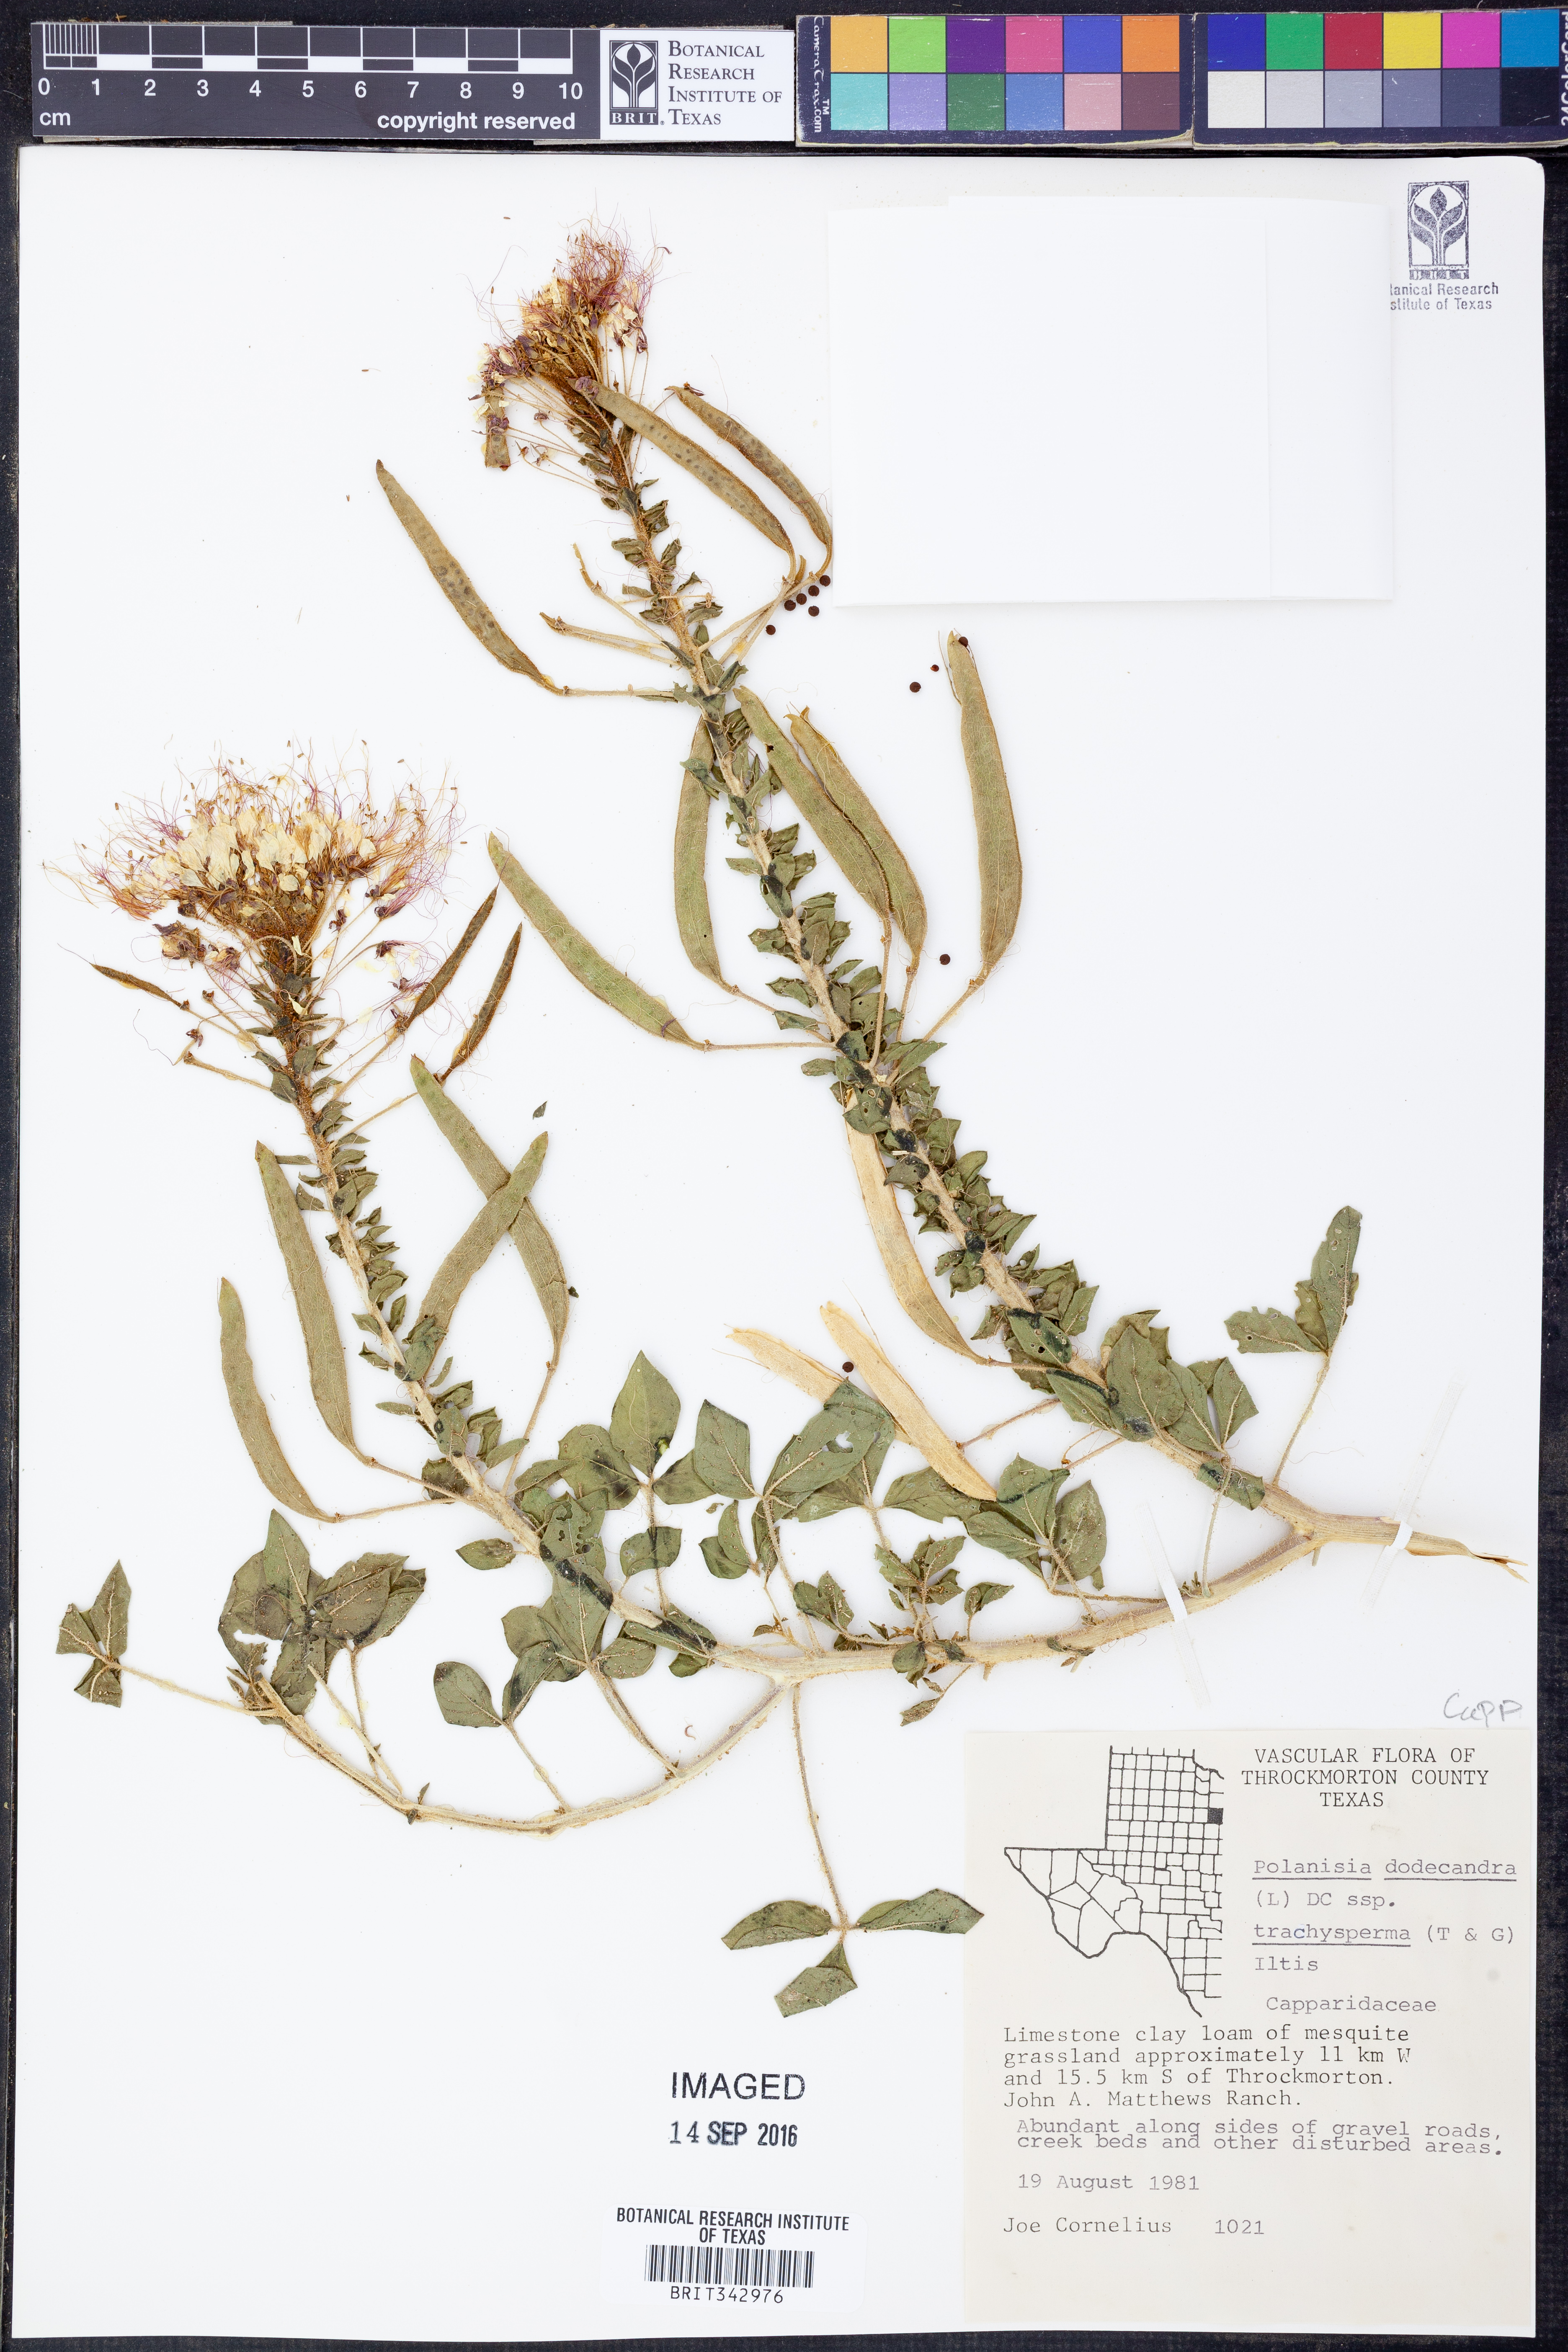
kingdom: Plantae
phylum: Tracheophyta
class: Magnoliopsida
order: Brassicales
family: Cleomaceae
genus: Polanisia
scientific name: Polanisia trachysperma
